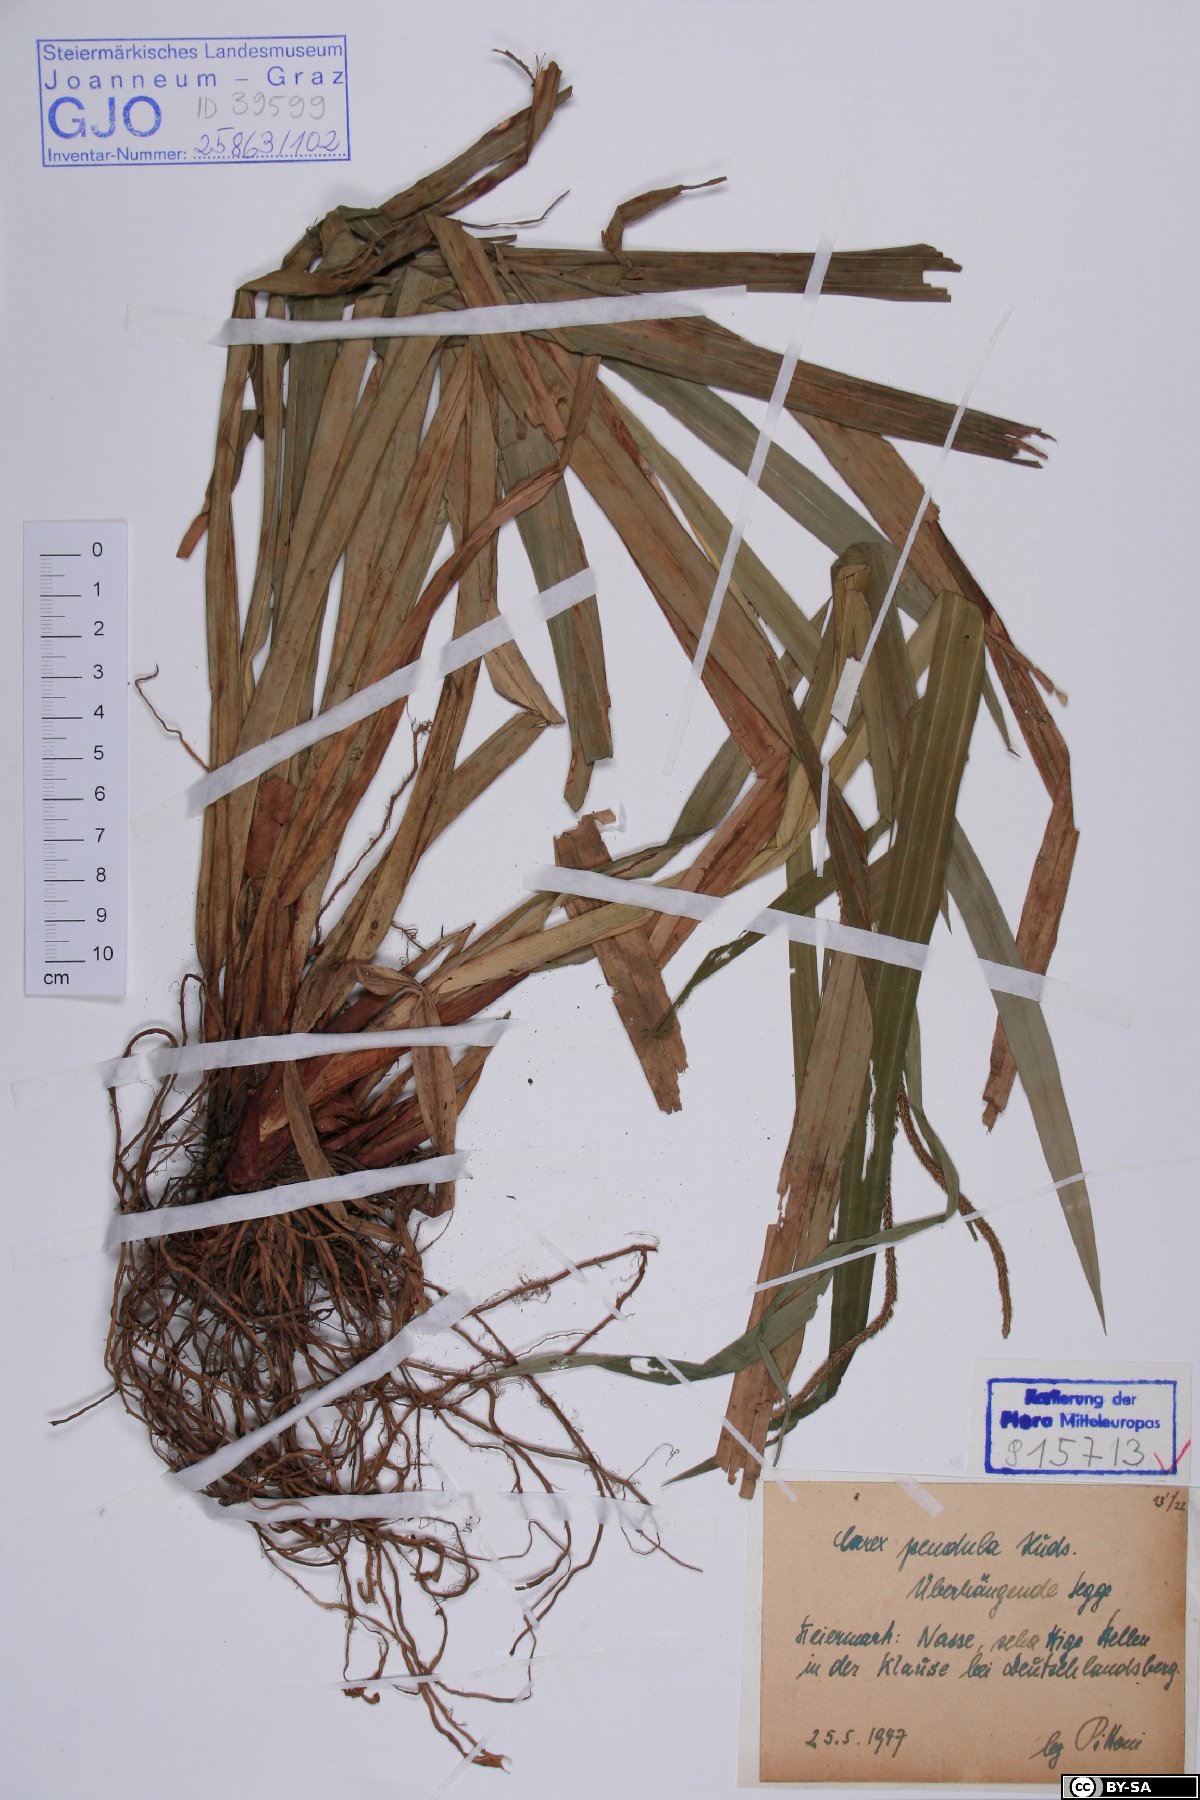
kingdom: Plantae
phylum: Tracheophyta
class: Liliopsida
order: Poales
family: Cyperaceae
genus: Carex
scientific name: Carex pendula
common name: Pendulous sedge
